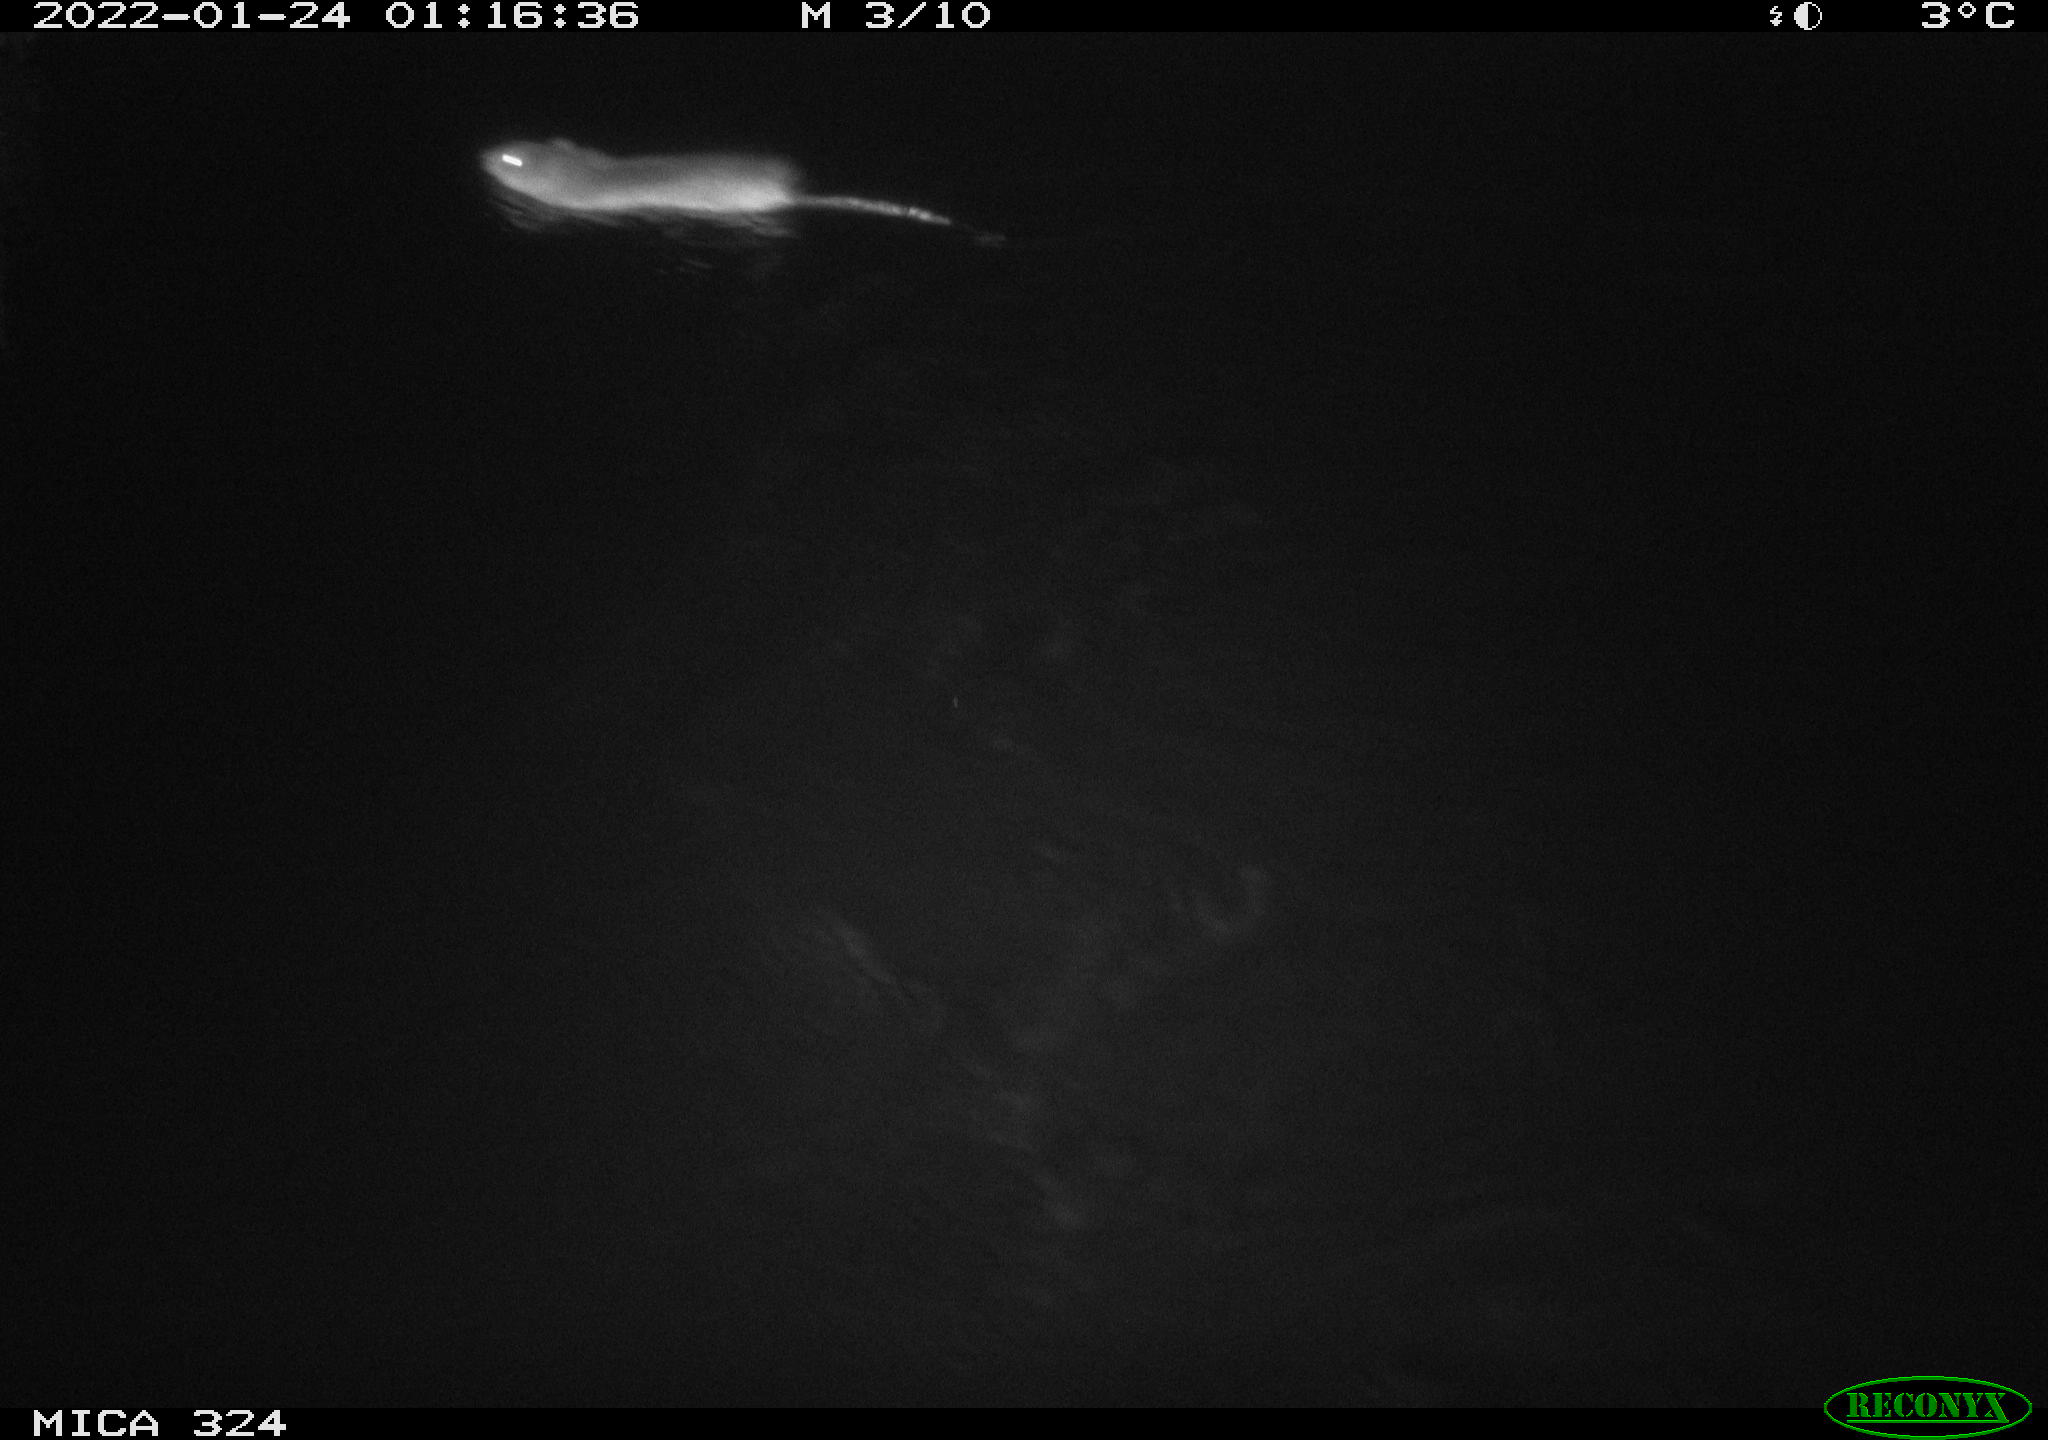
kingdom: Animalia
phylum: Chordata
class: Mammalia
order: Rodentia
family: Muridae
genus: Rattus
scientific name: Rattus norvegicus
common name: Brown rat
